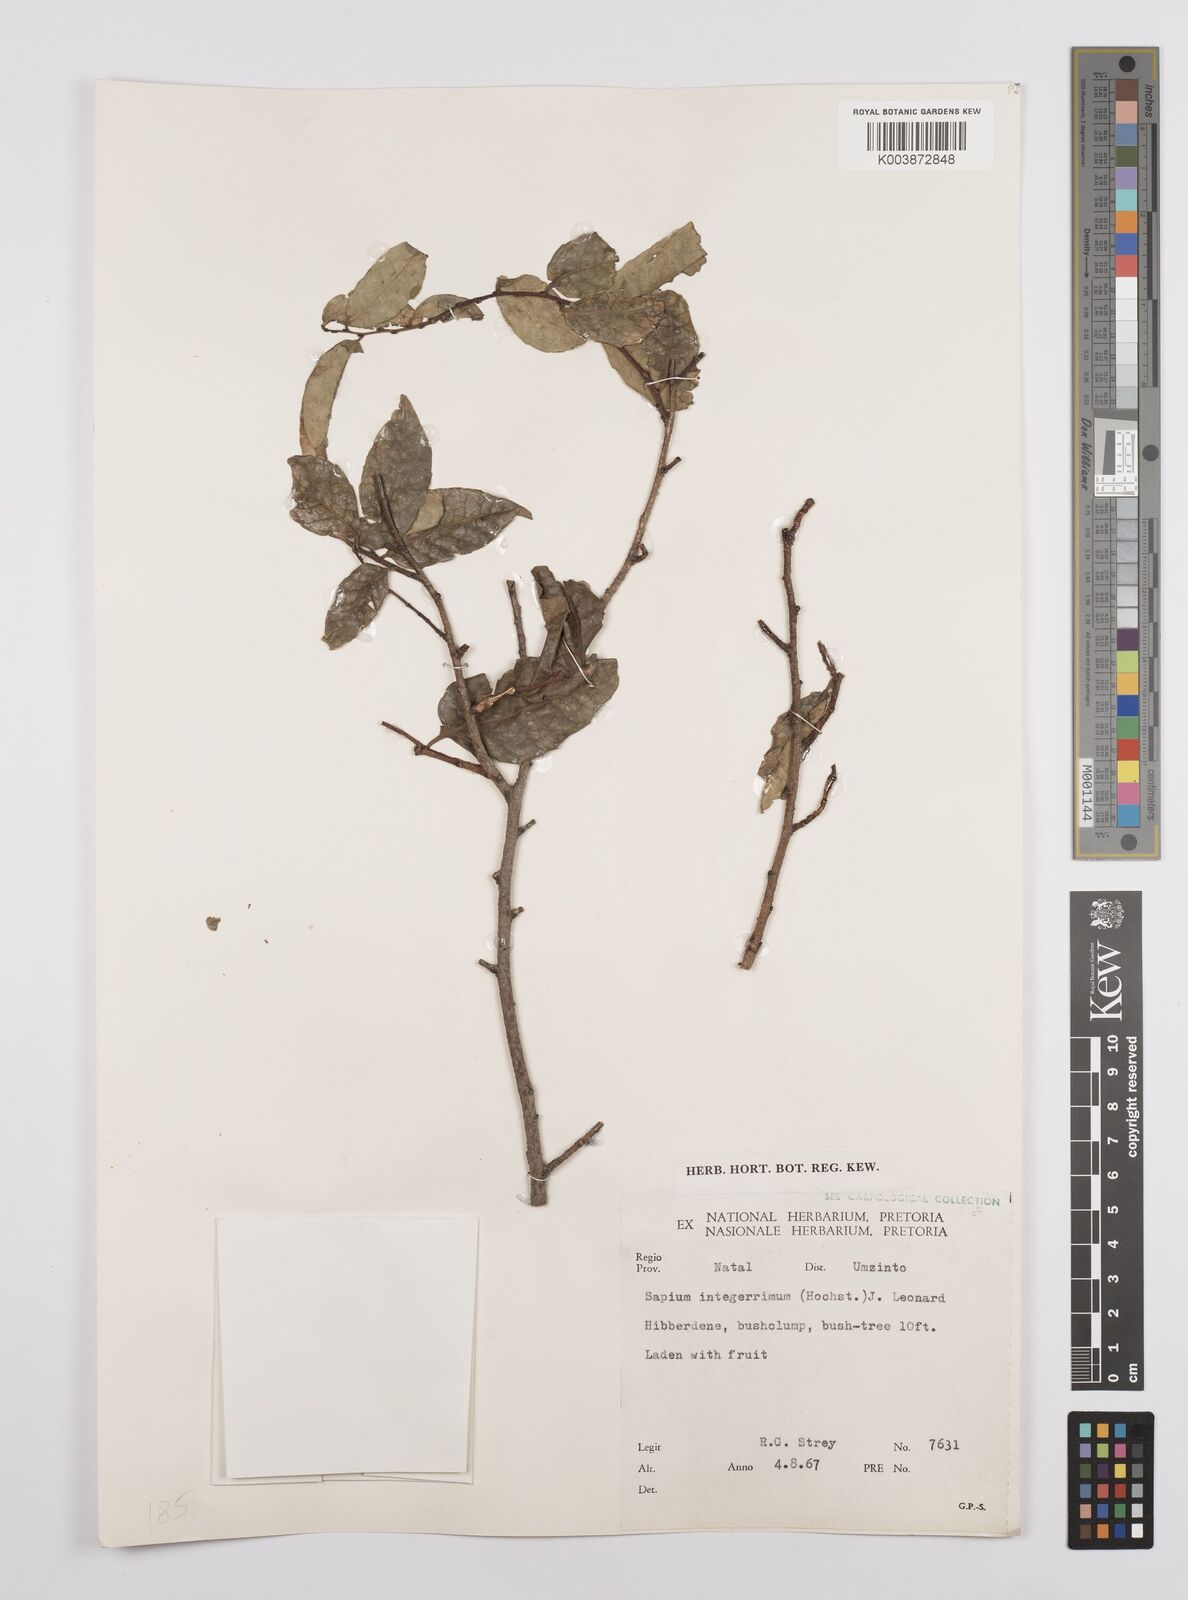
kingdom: Plantae
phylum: Tracheophyta
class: Magnoliopsida
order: Malpighiales
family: Euphorbiaceae
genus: Sclerocroton
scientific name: Sclerocroton integerrimus
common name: Duiker berry
